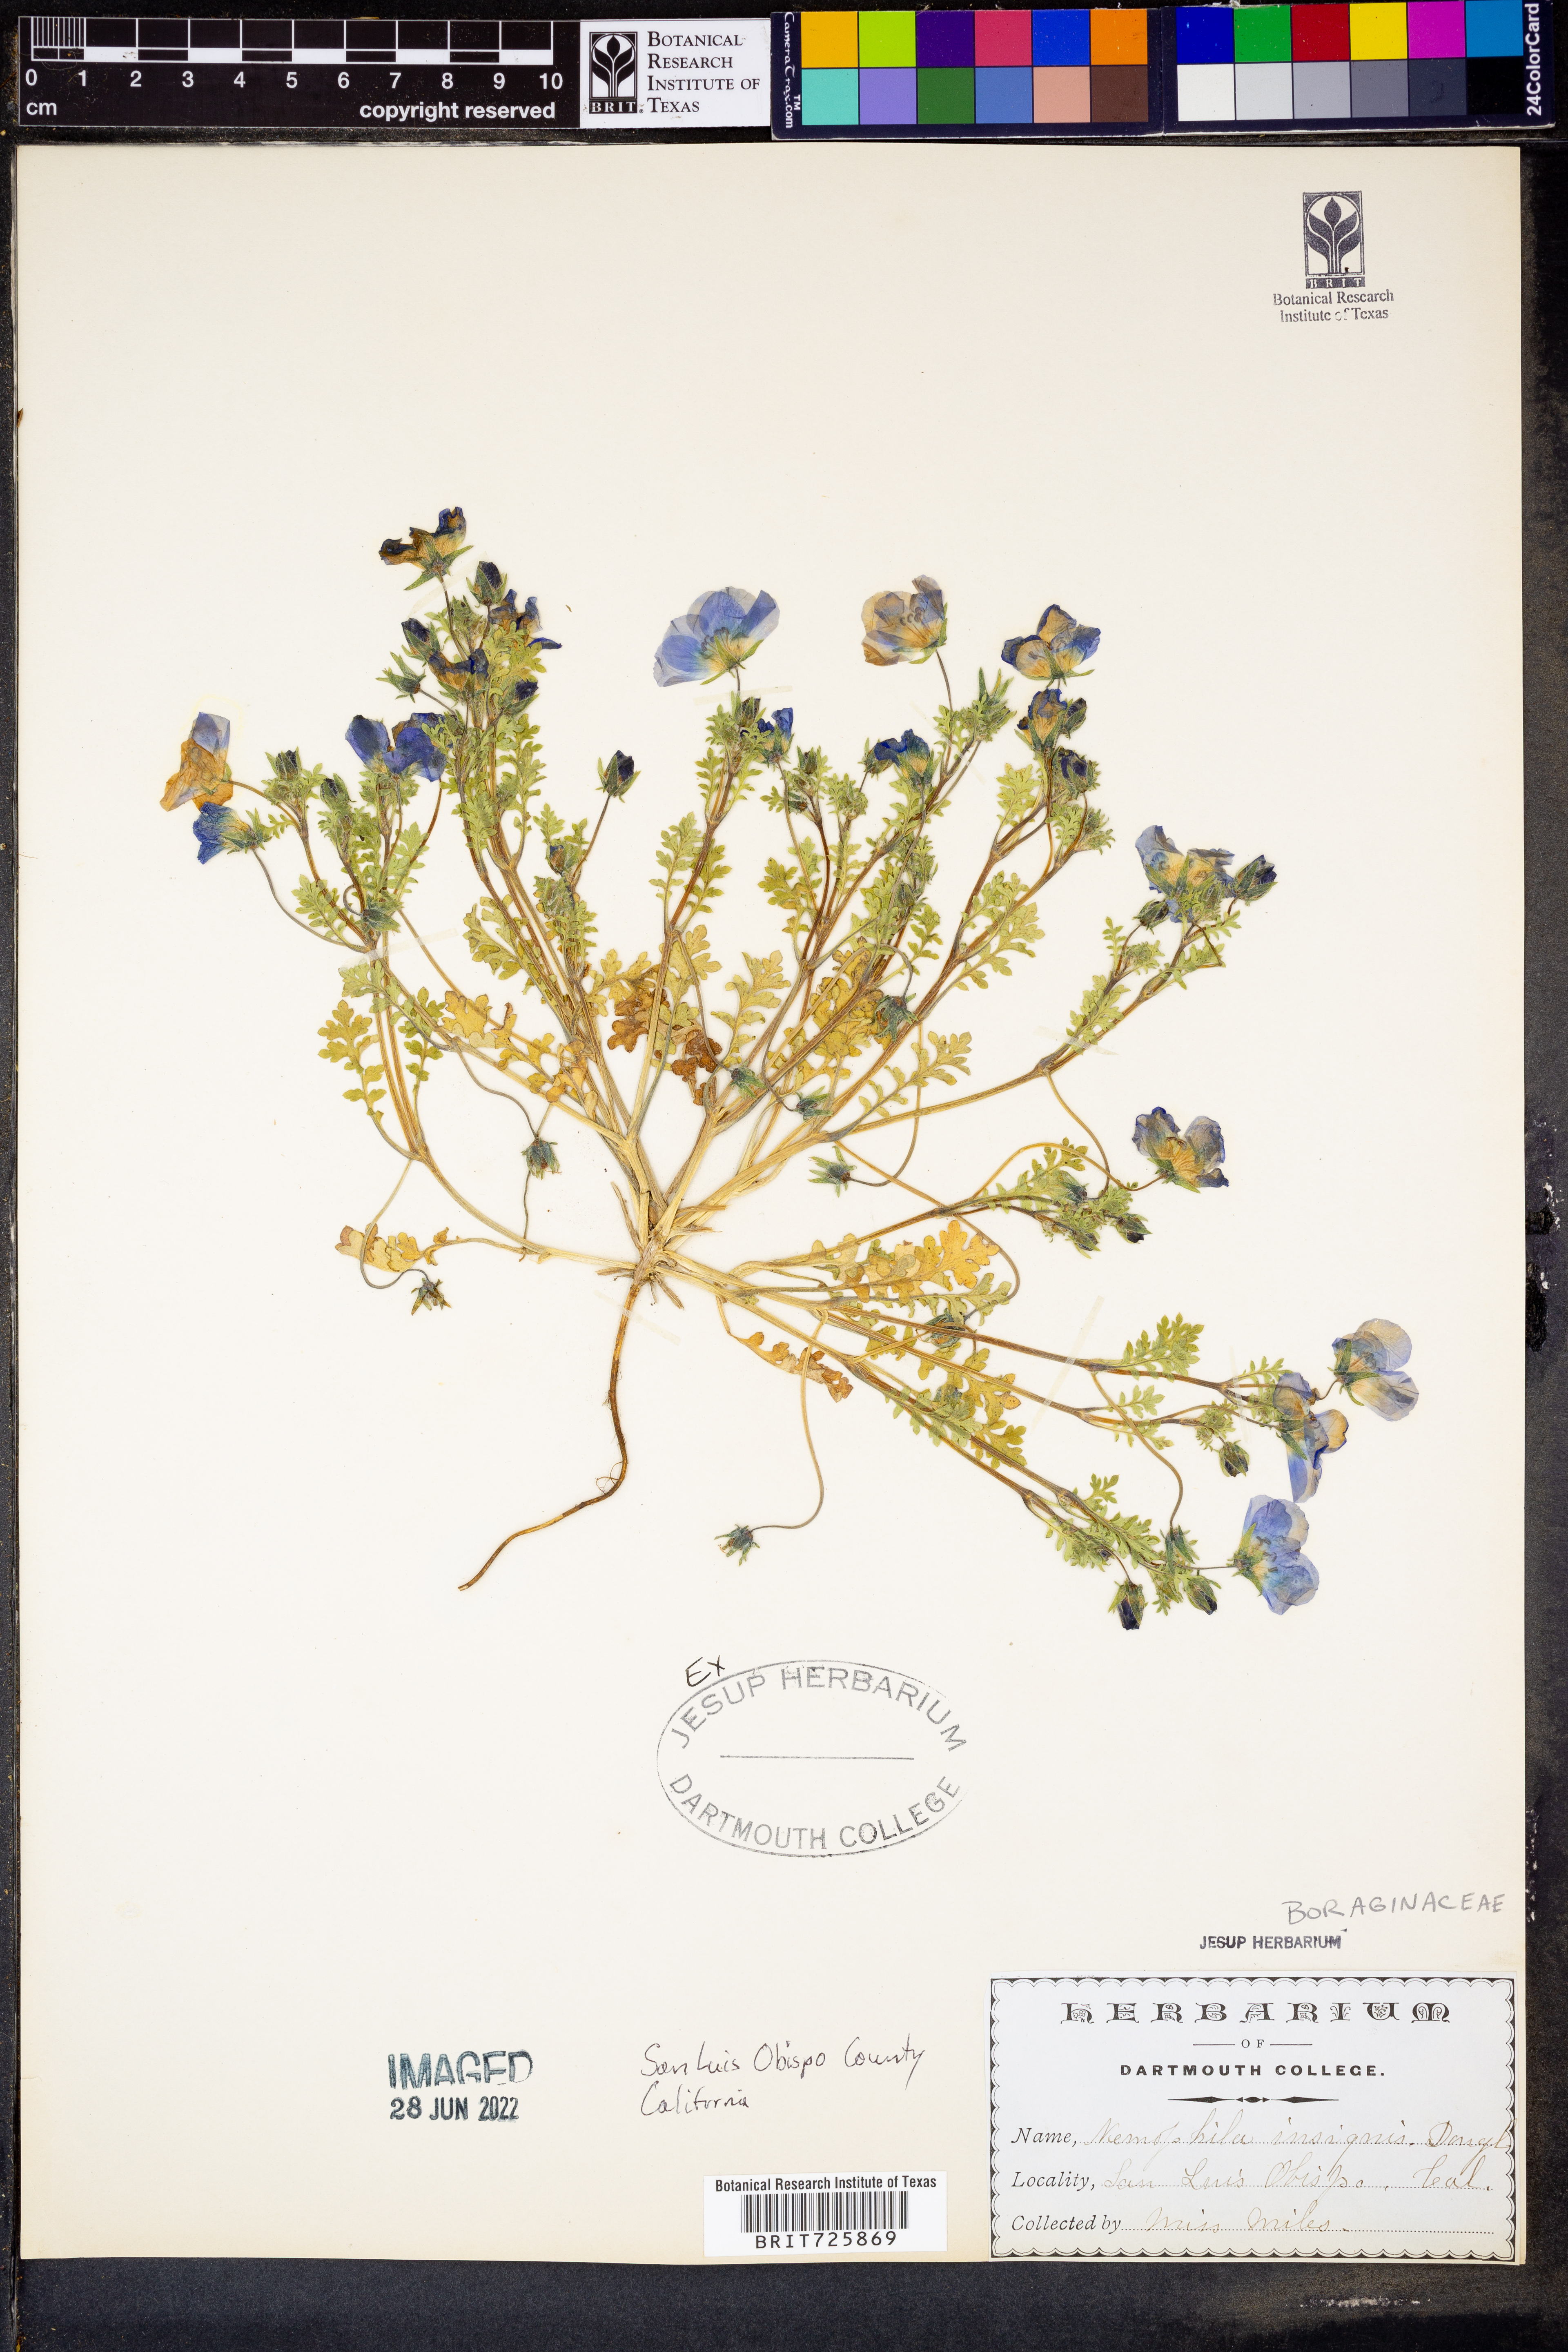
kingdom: Plantae
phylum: Tracheophyta
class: Magnoliopsida
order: Boraginales
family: Hydrophyllaceae
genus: Nemophila
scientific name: Nemophila
